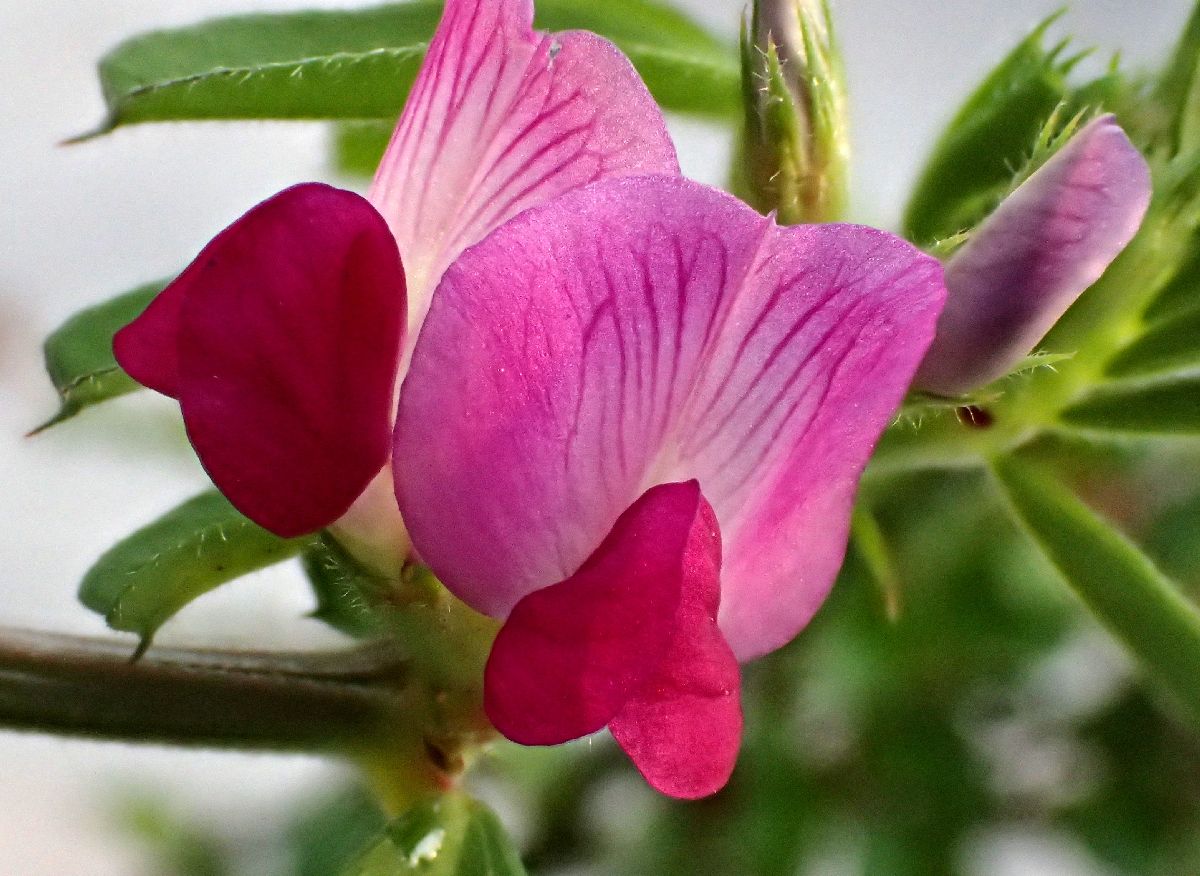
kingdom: Plantae
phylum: Tracheophyta
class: Magnoliopsida
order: Fabales
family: Fabaceae
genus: Vicia
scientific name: Vicia sativa
